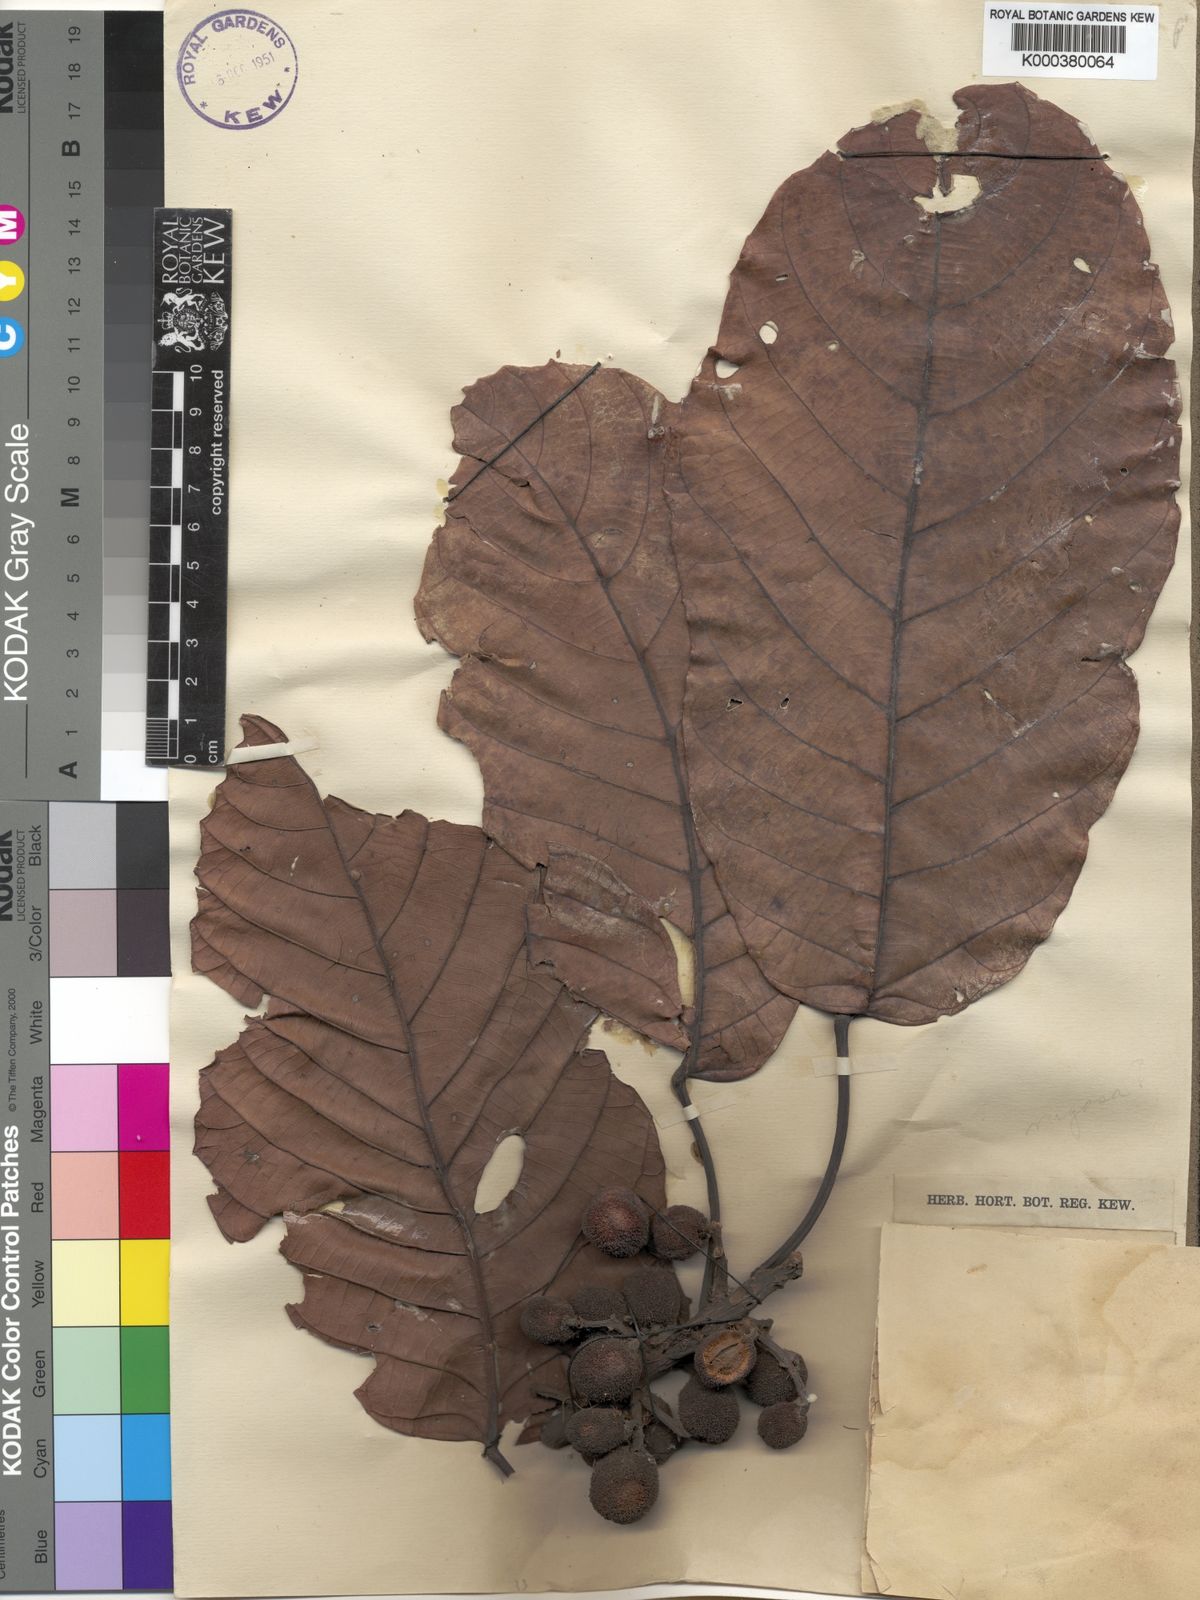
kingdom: Plantae
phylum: Tracheophyta
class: Magnoliopsida
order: Oxalidales
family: Elaeocarpaceae
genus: Sloanea
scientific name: Sloanea brevispina
